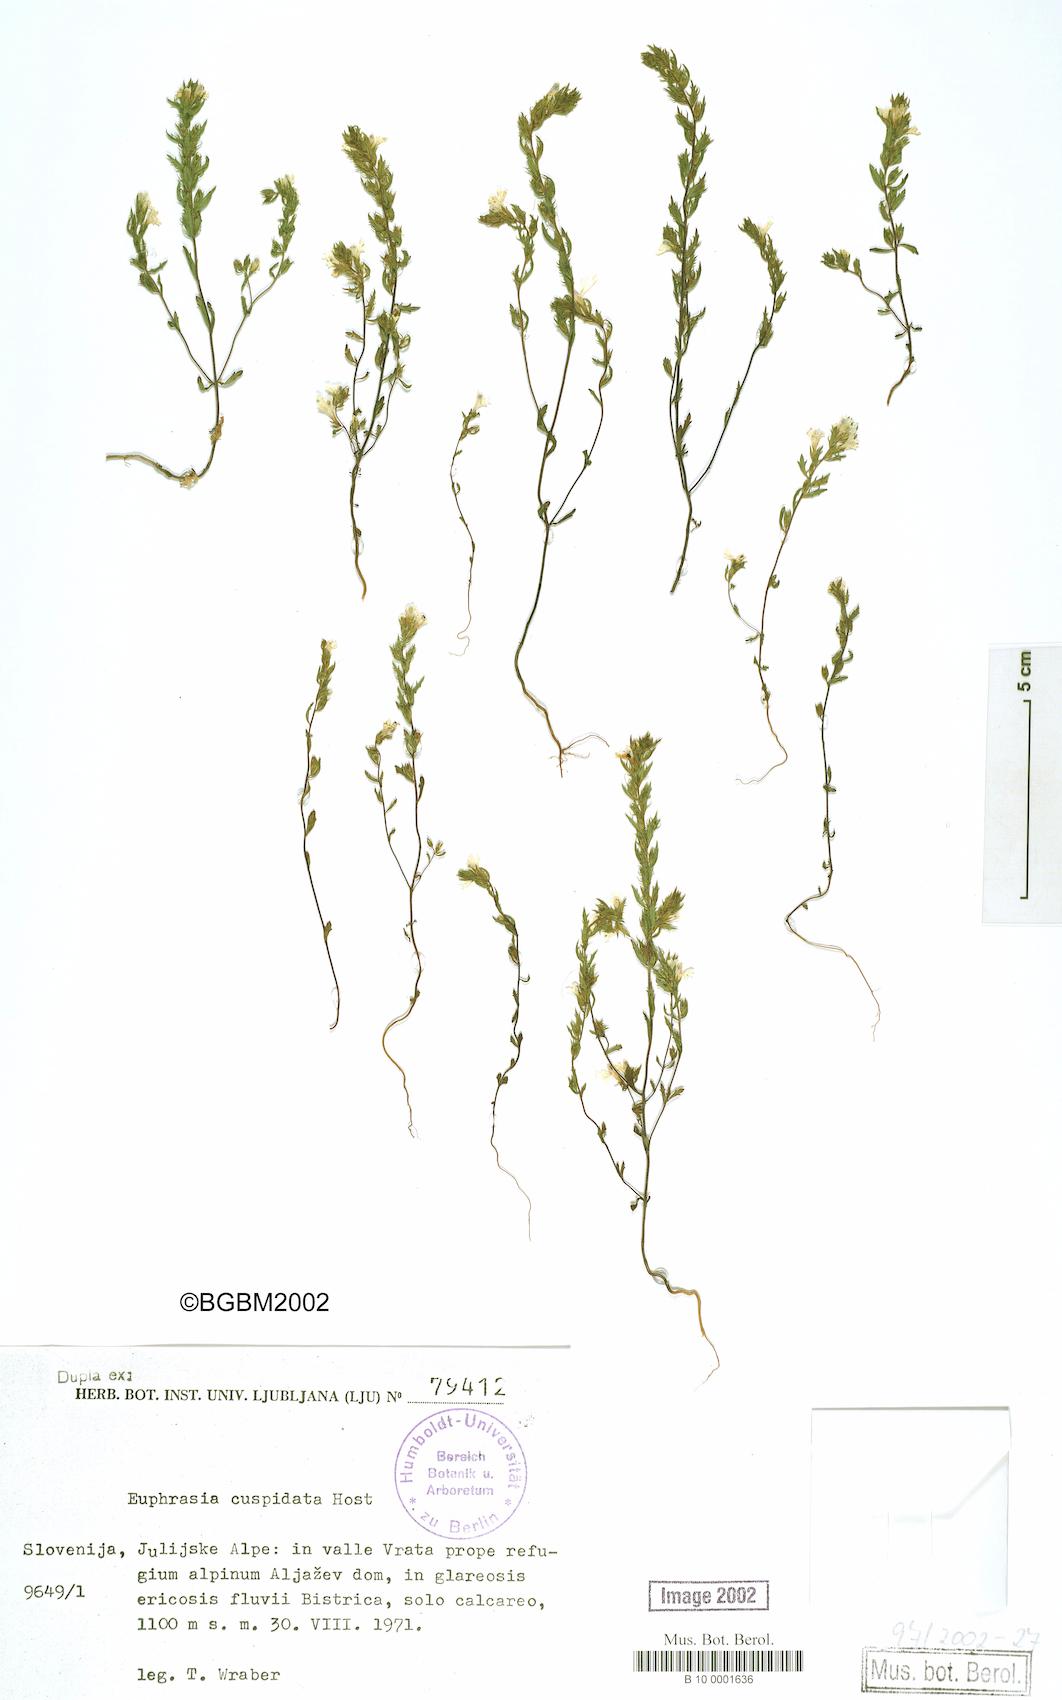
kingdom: Plantae
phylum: Tracheophyta
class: Magnoliopsida
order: Lamiales
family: Orobanchaceae
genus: Euphrasia
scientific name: Euphrasia cuspidata
